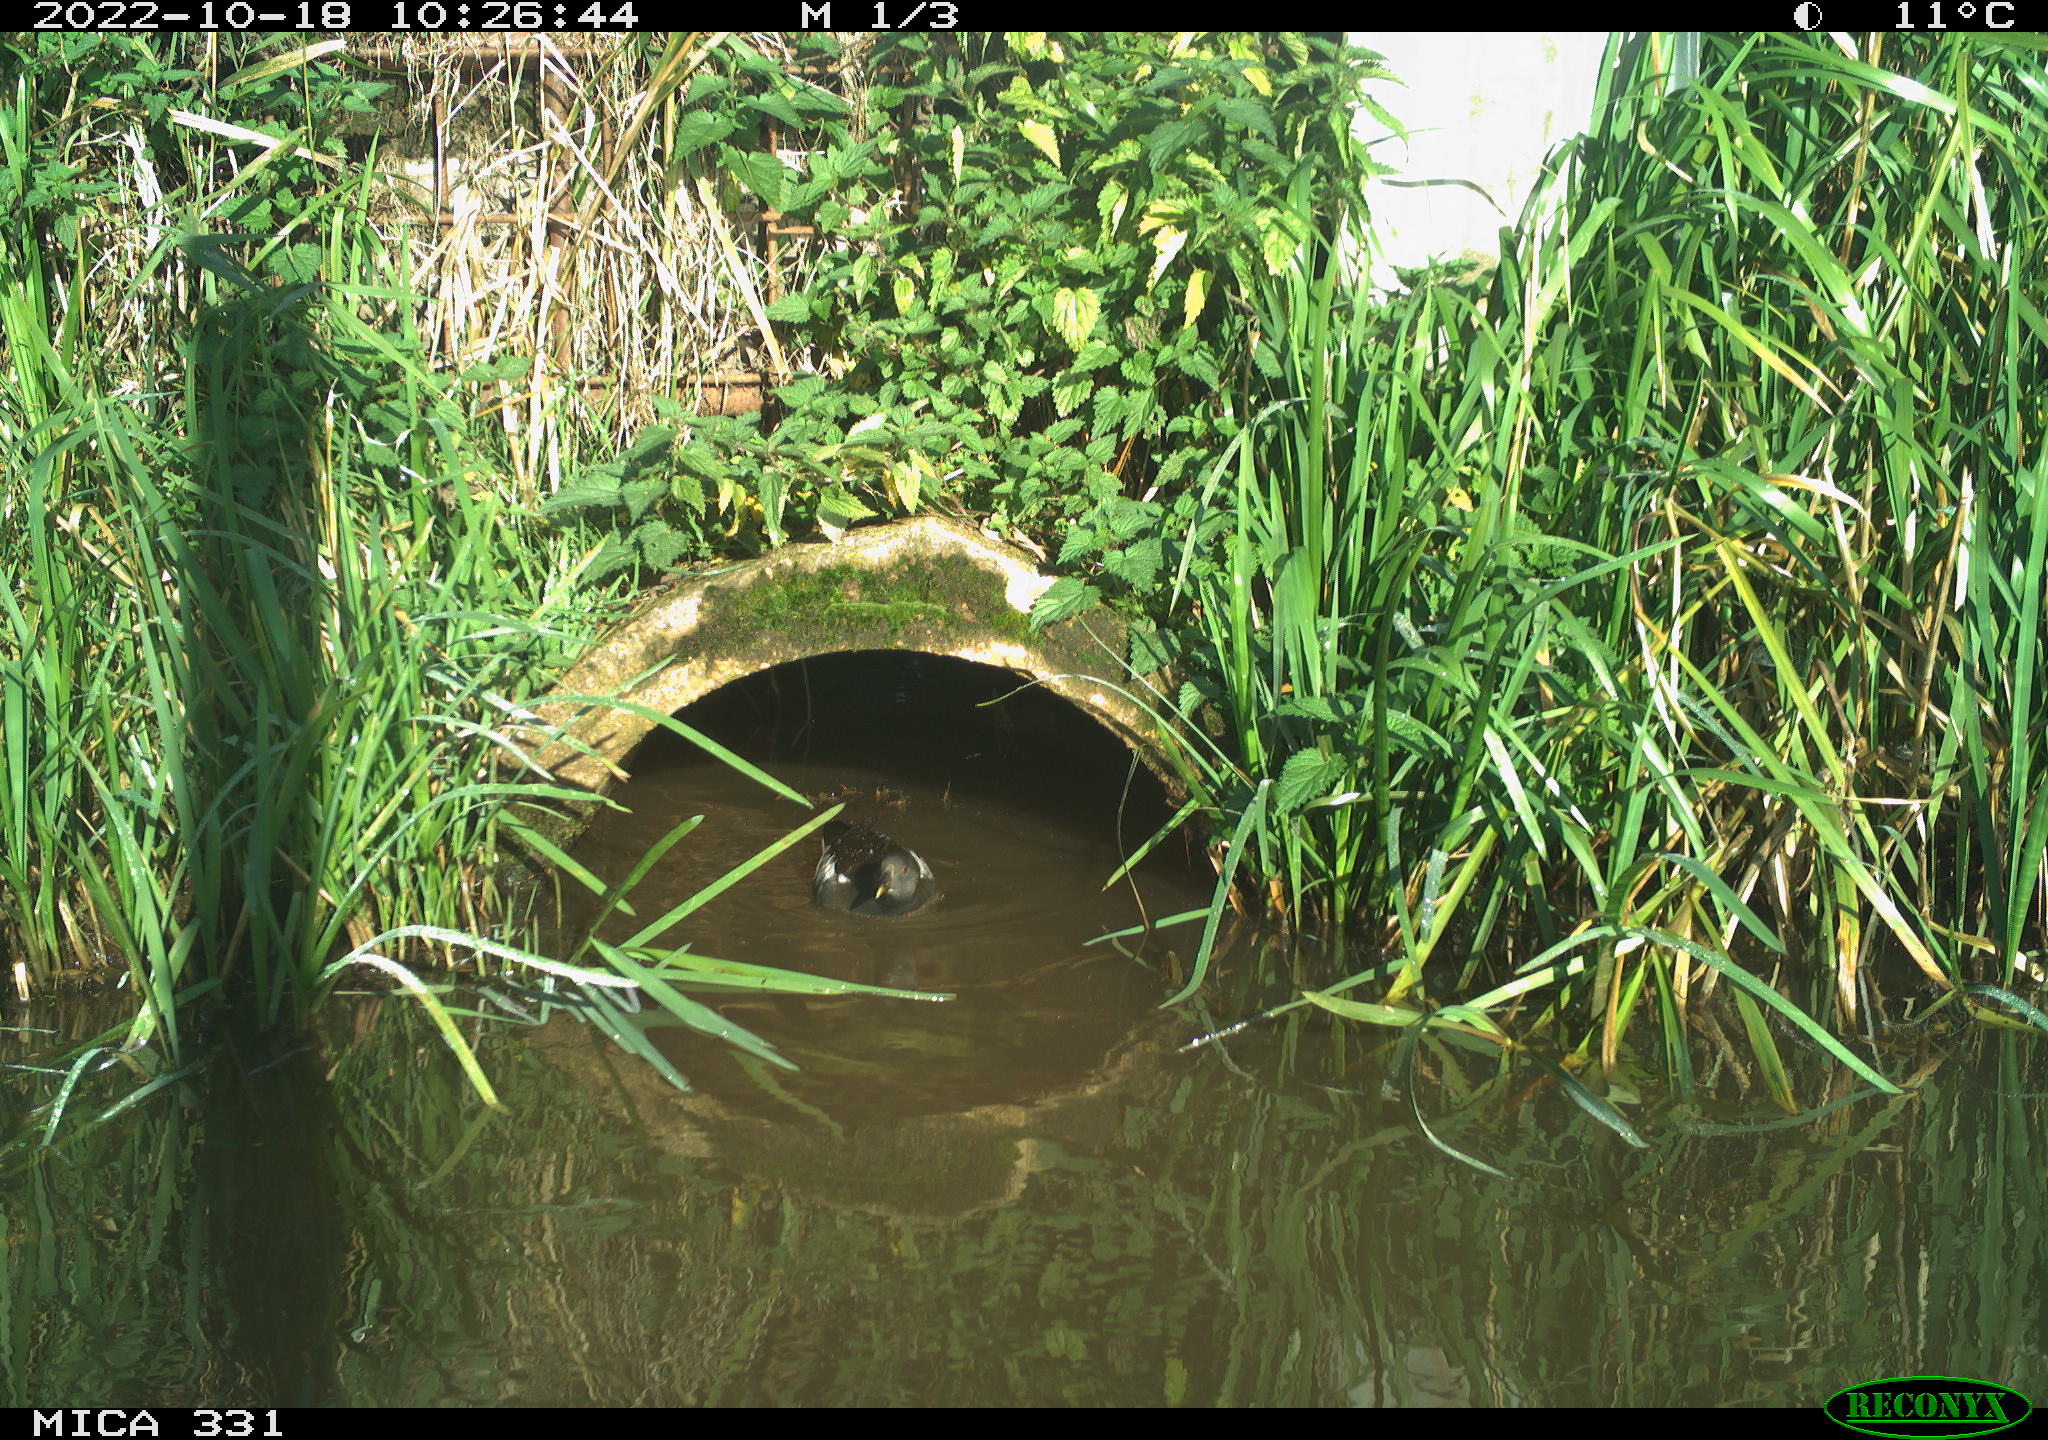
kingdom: Animalia
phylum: Chordata
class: Aves
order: Gruiformes
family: Rallidae
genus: Gallinula
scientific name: Gallinula chloropus
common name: Common moorhen
